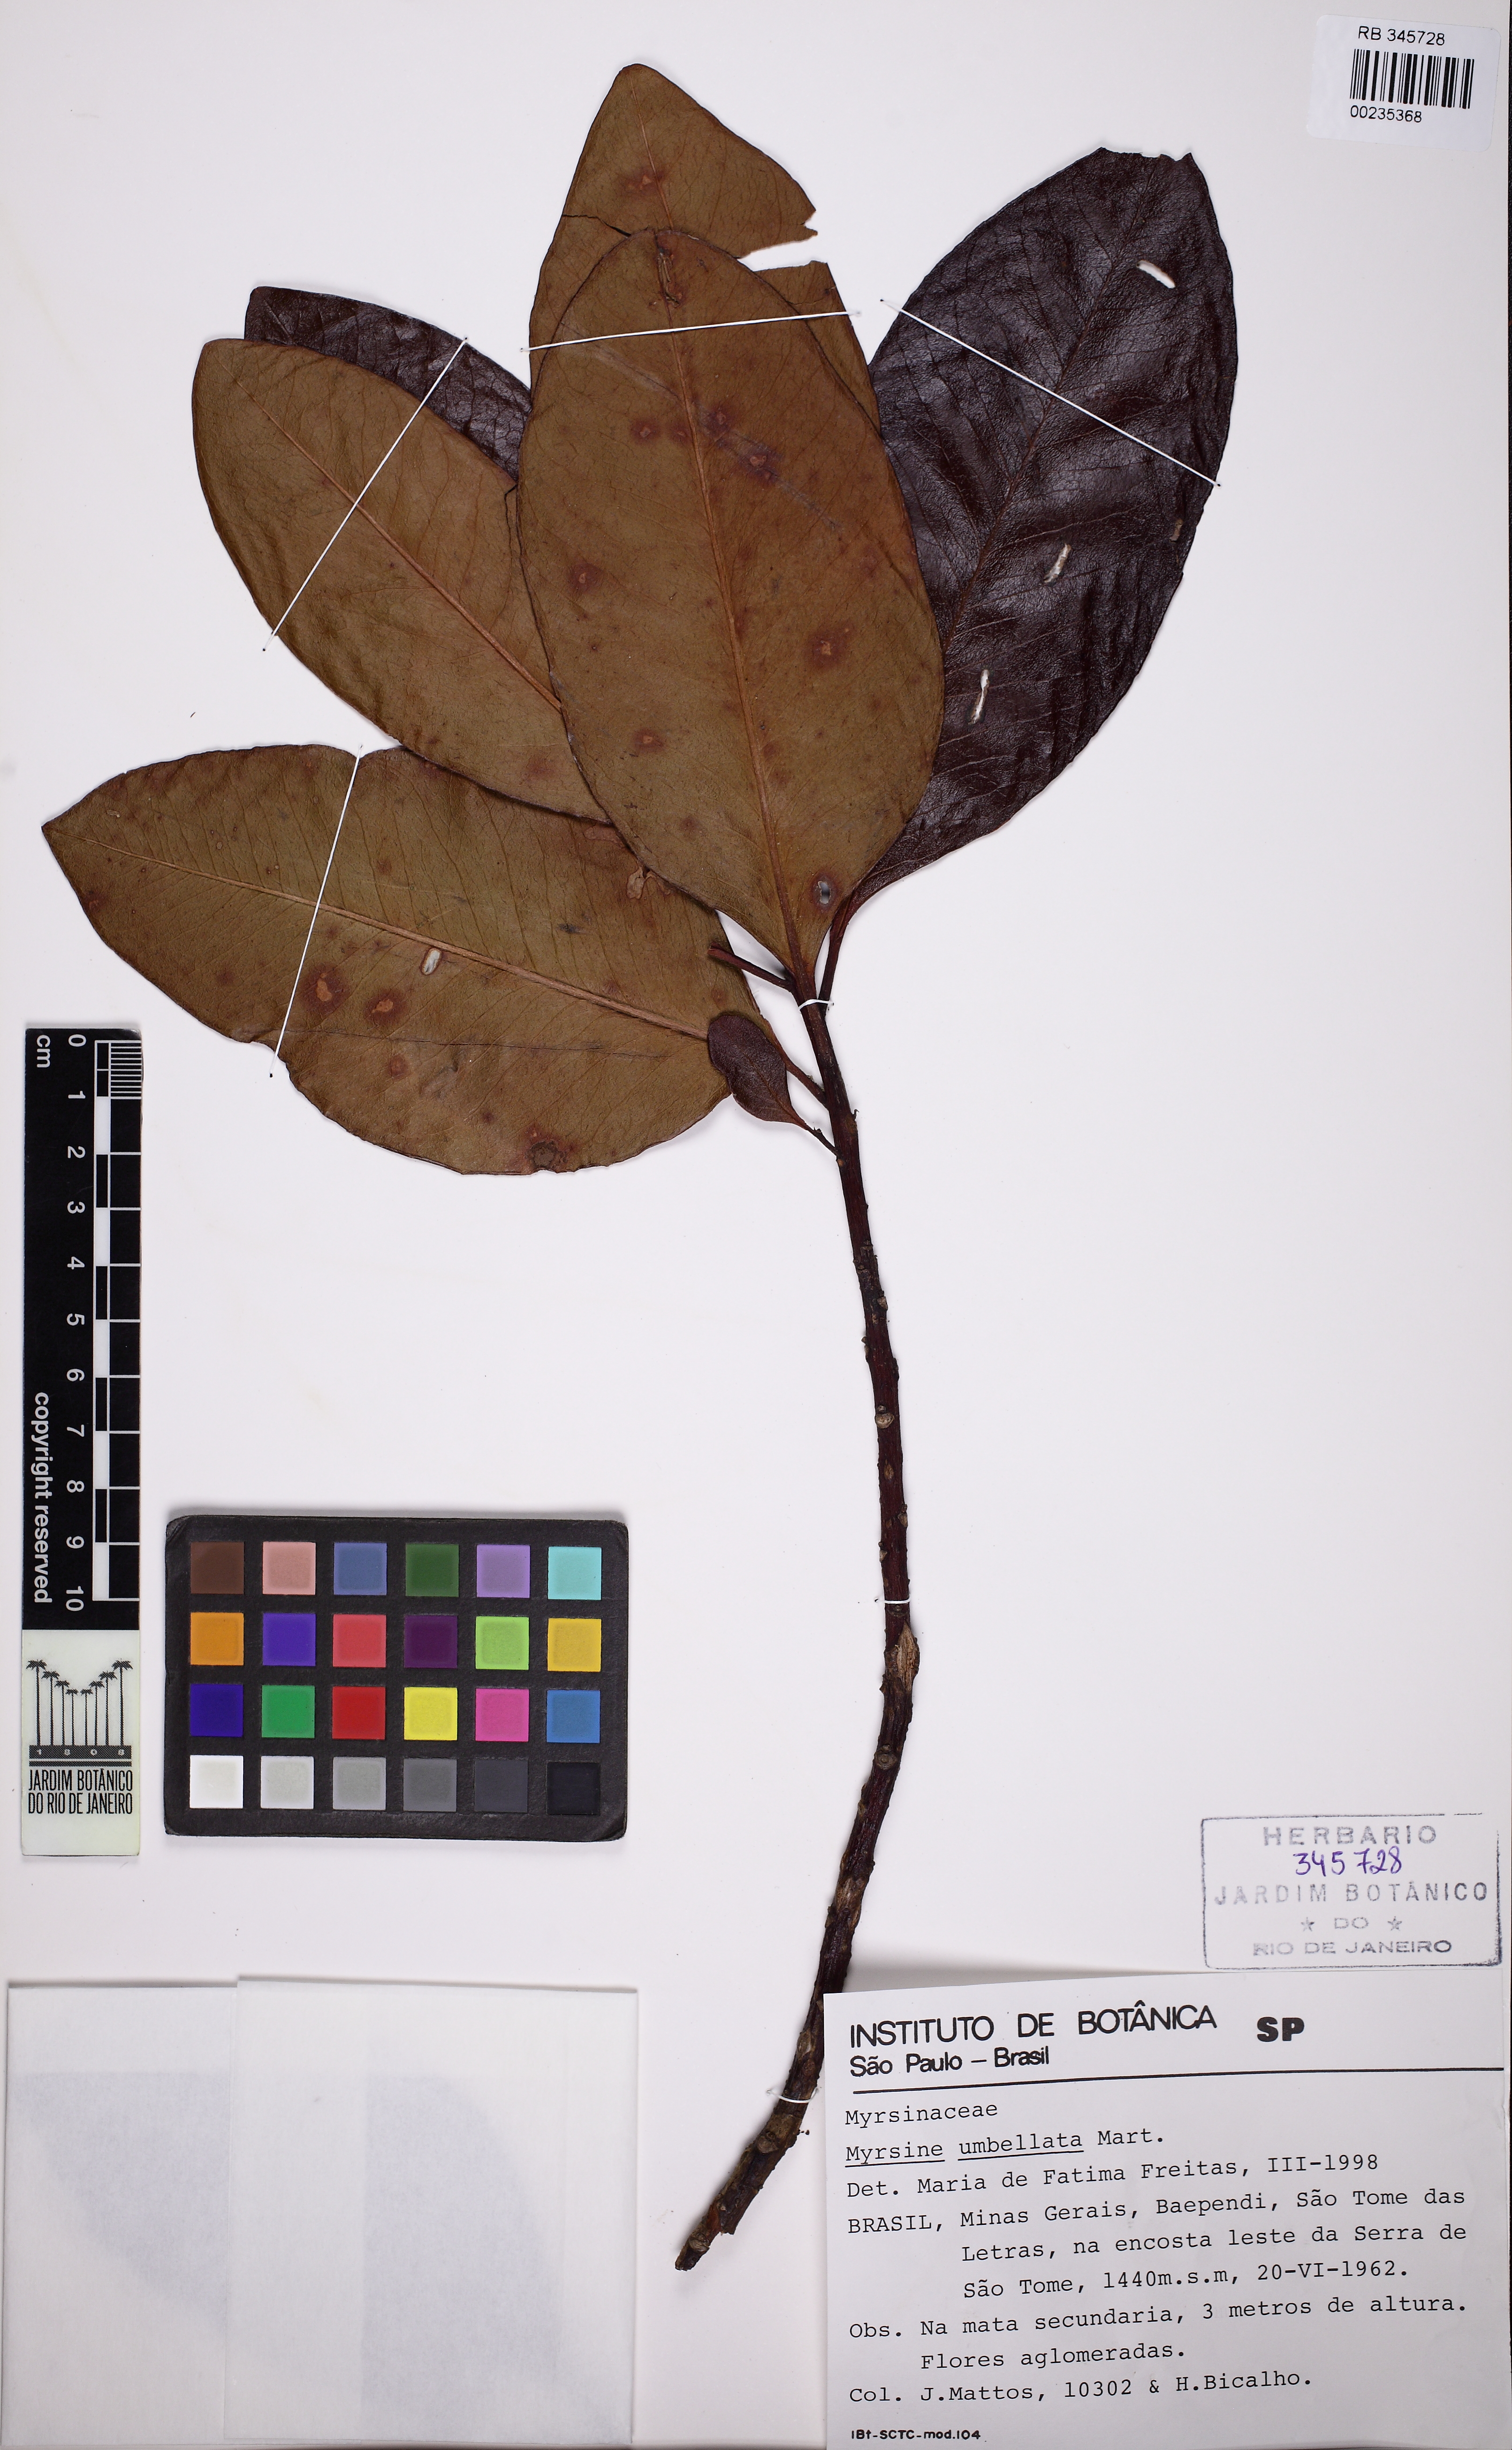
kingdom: Plantae
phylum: Tracheophyta
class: Magnoliopsida
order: Ericales
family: Primulaceae
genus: Myrsine
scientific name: Myrsine umbellata
